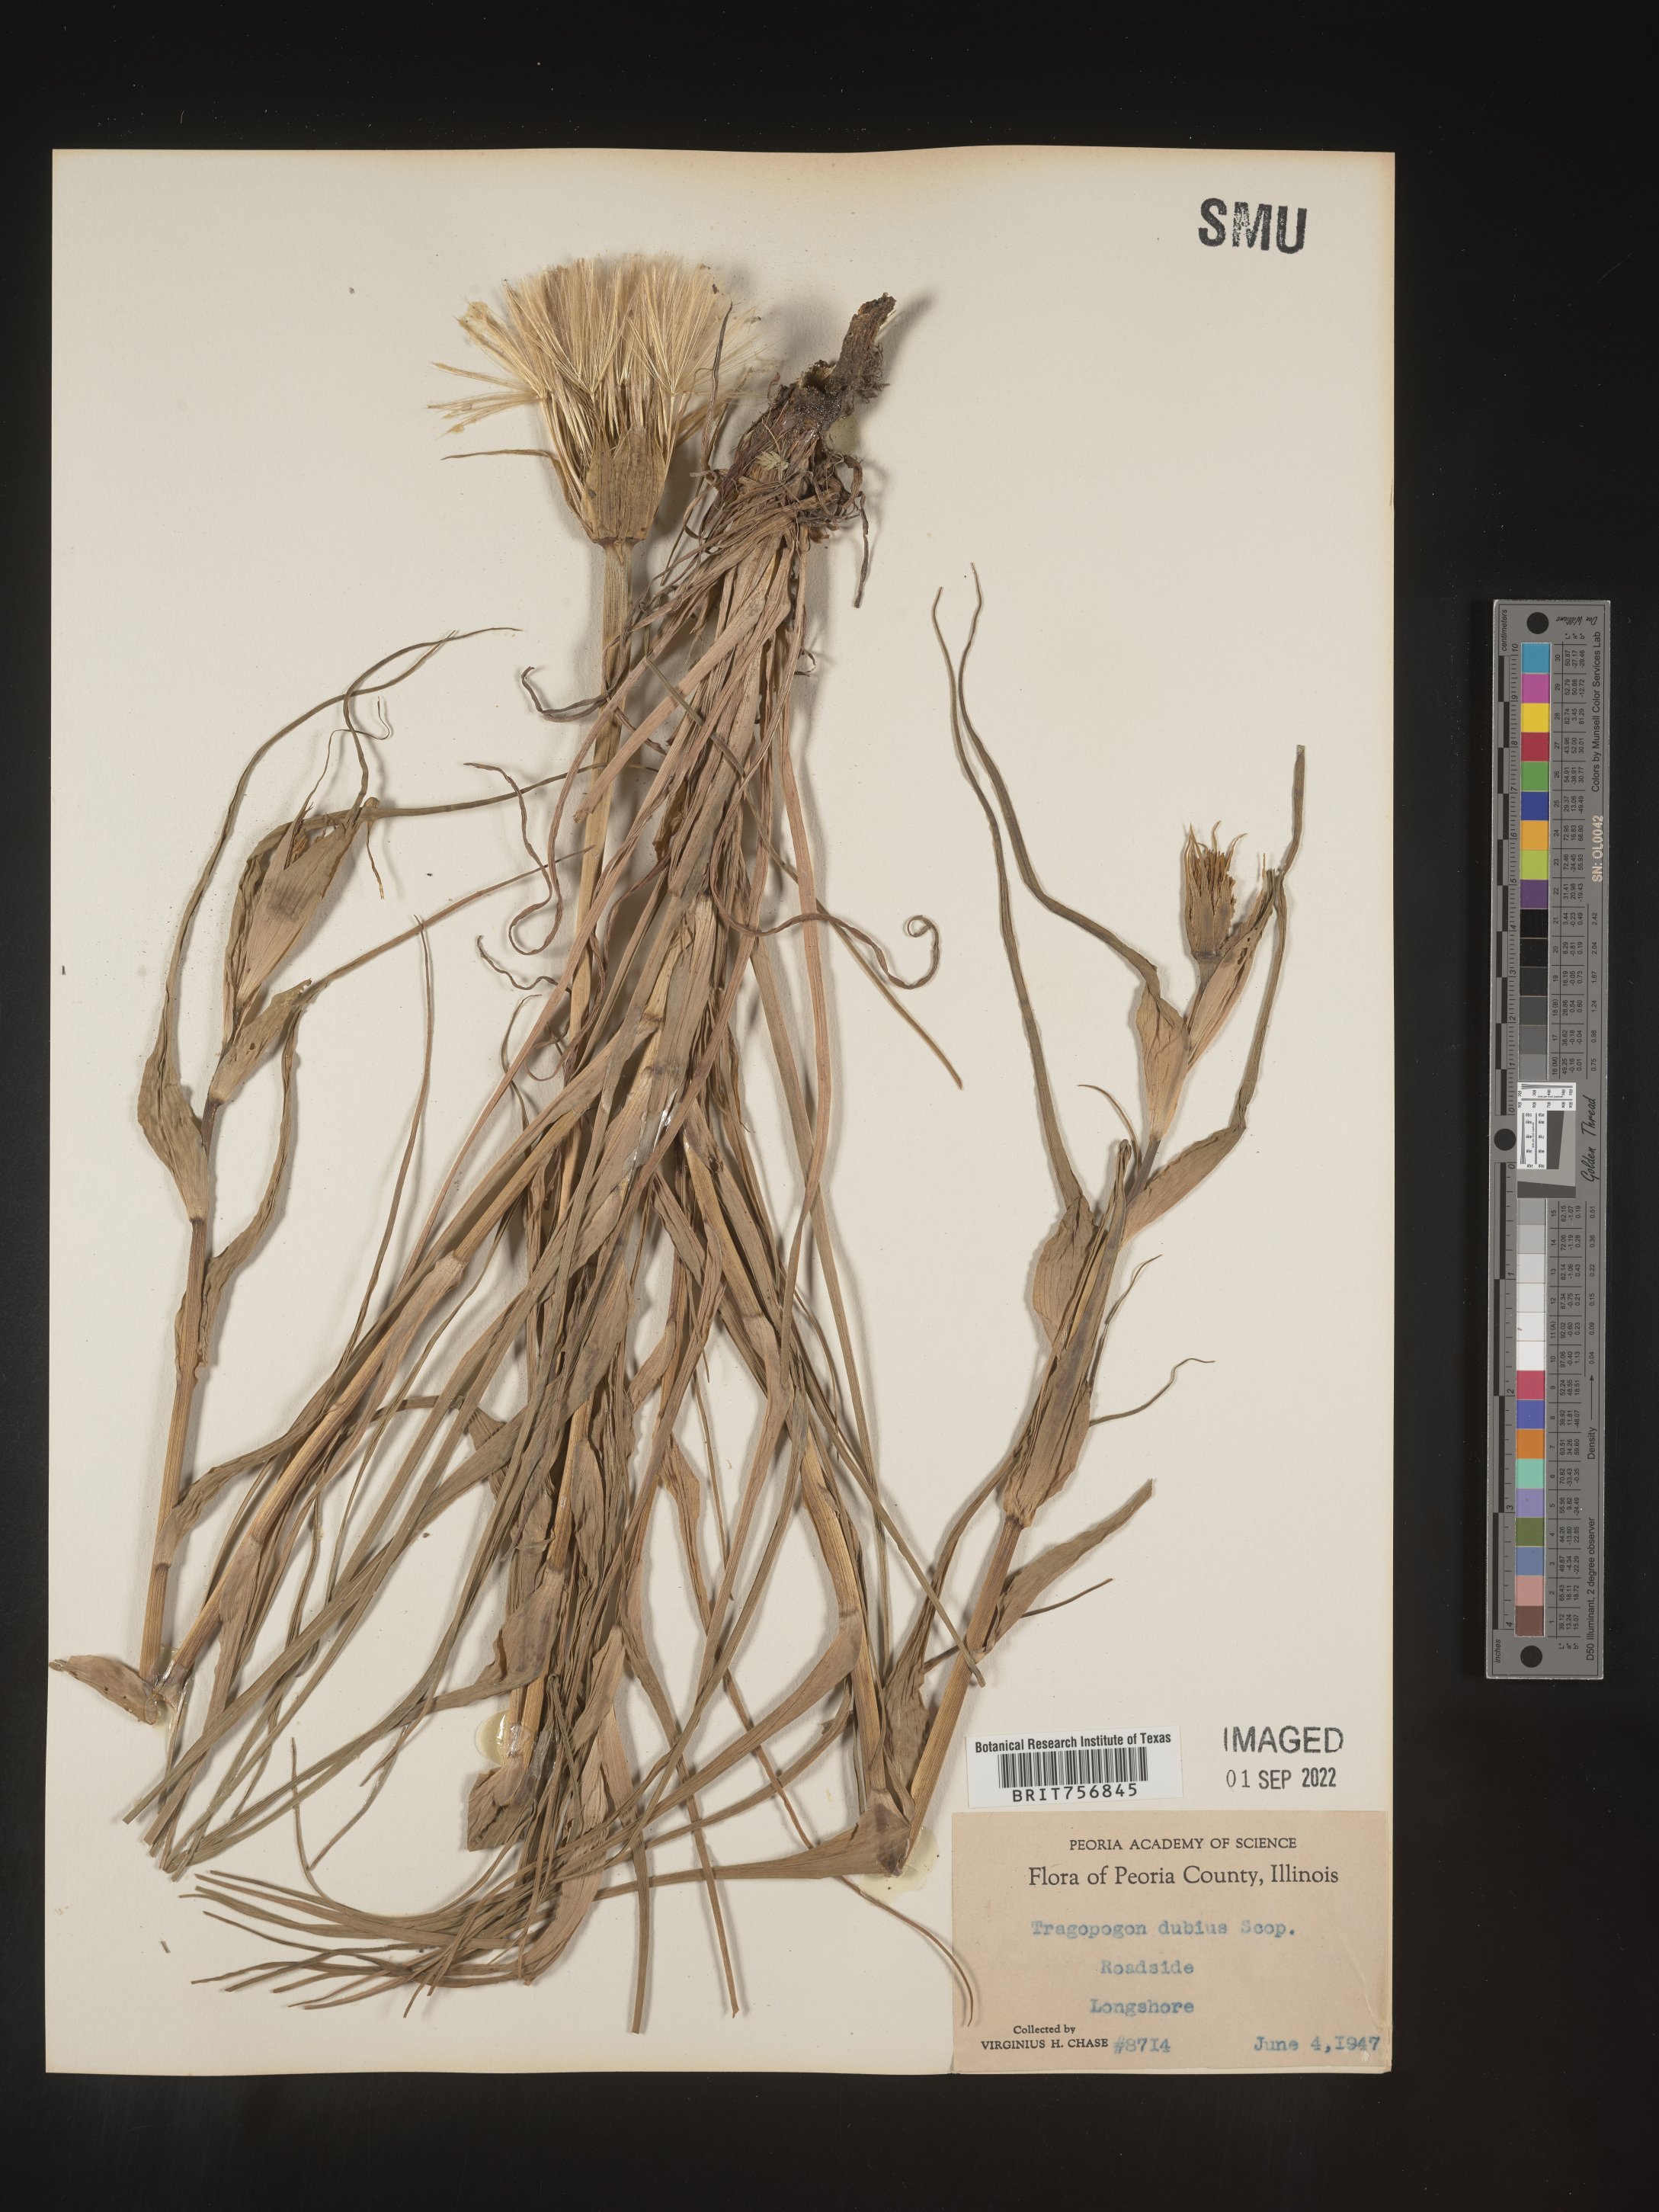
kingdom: Plantae
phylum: Tracheophyta
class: Magnoliopsida
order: Asterales
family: Asteraceae
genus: Tragopogon
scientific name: Tragopogon dubius
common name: Yellow salsify
